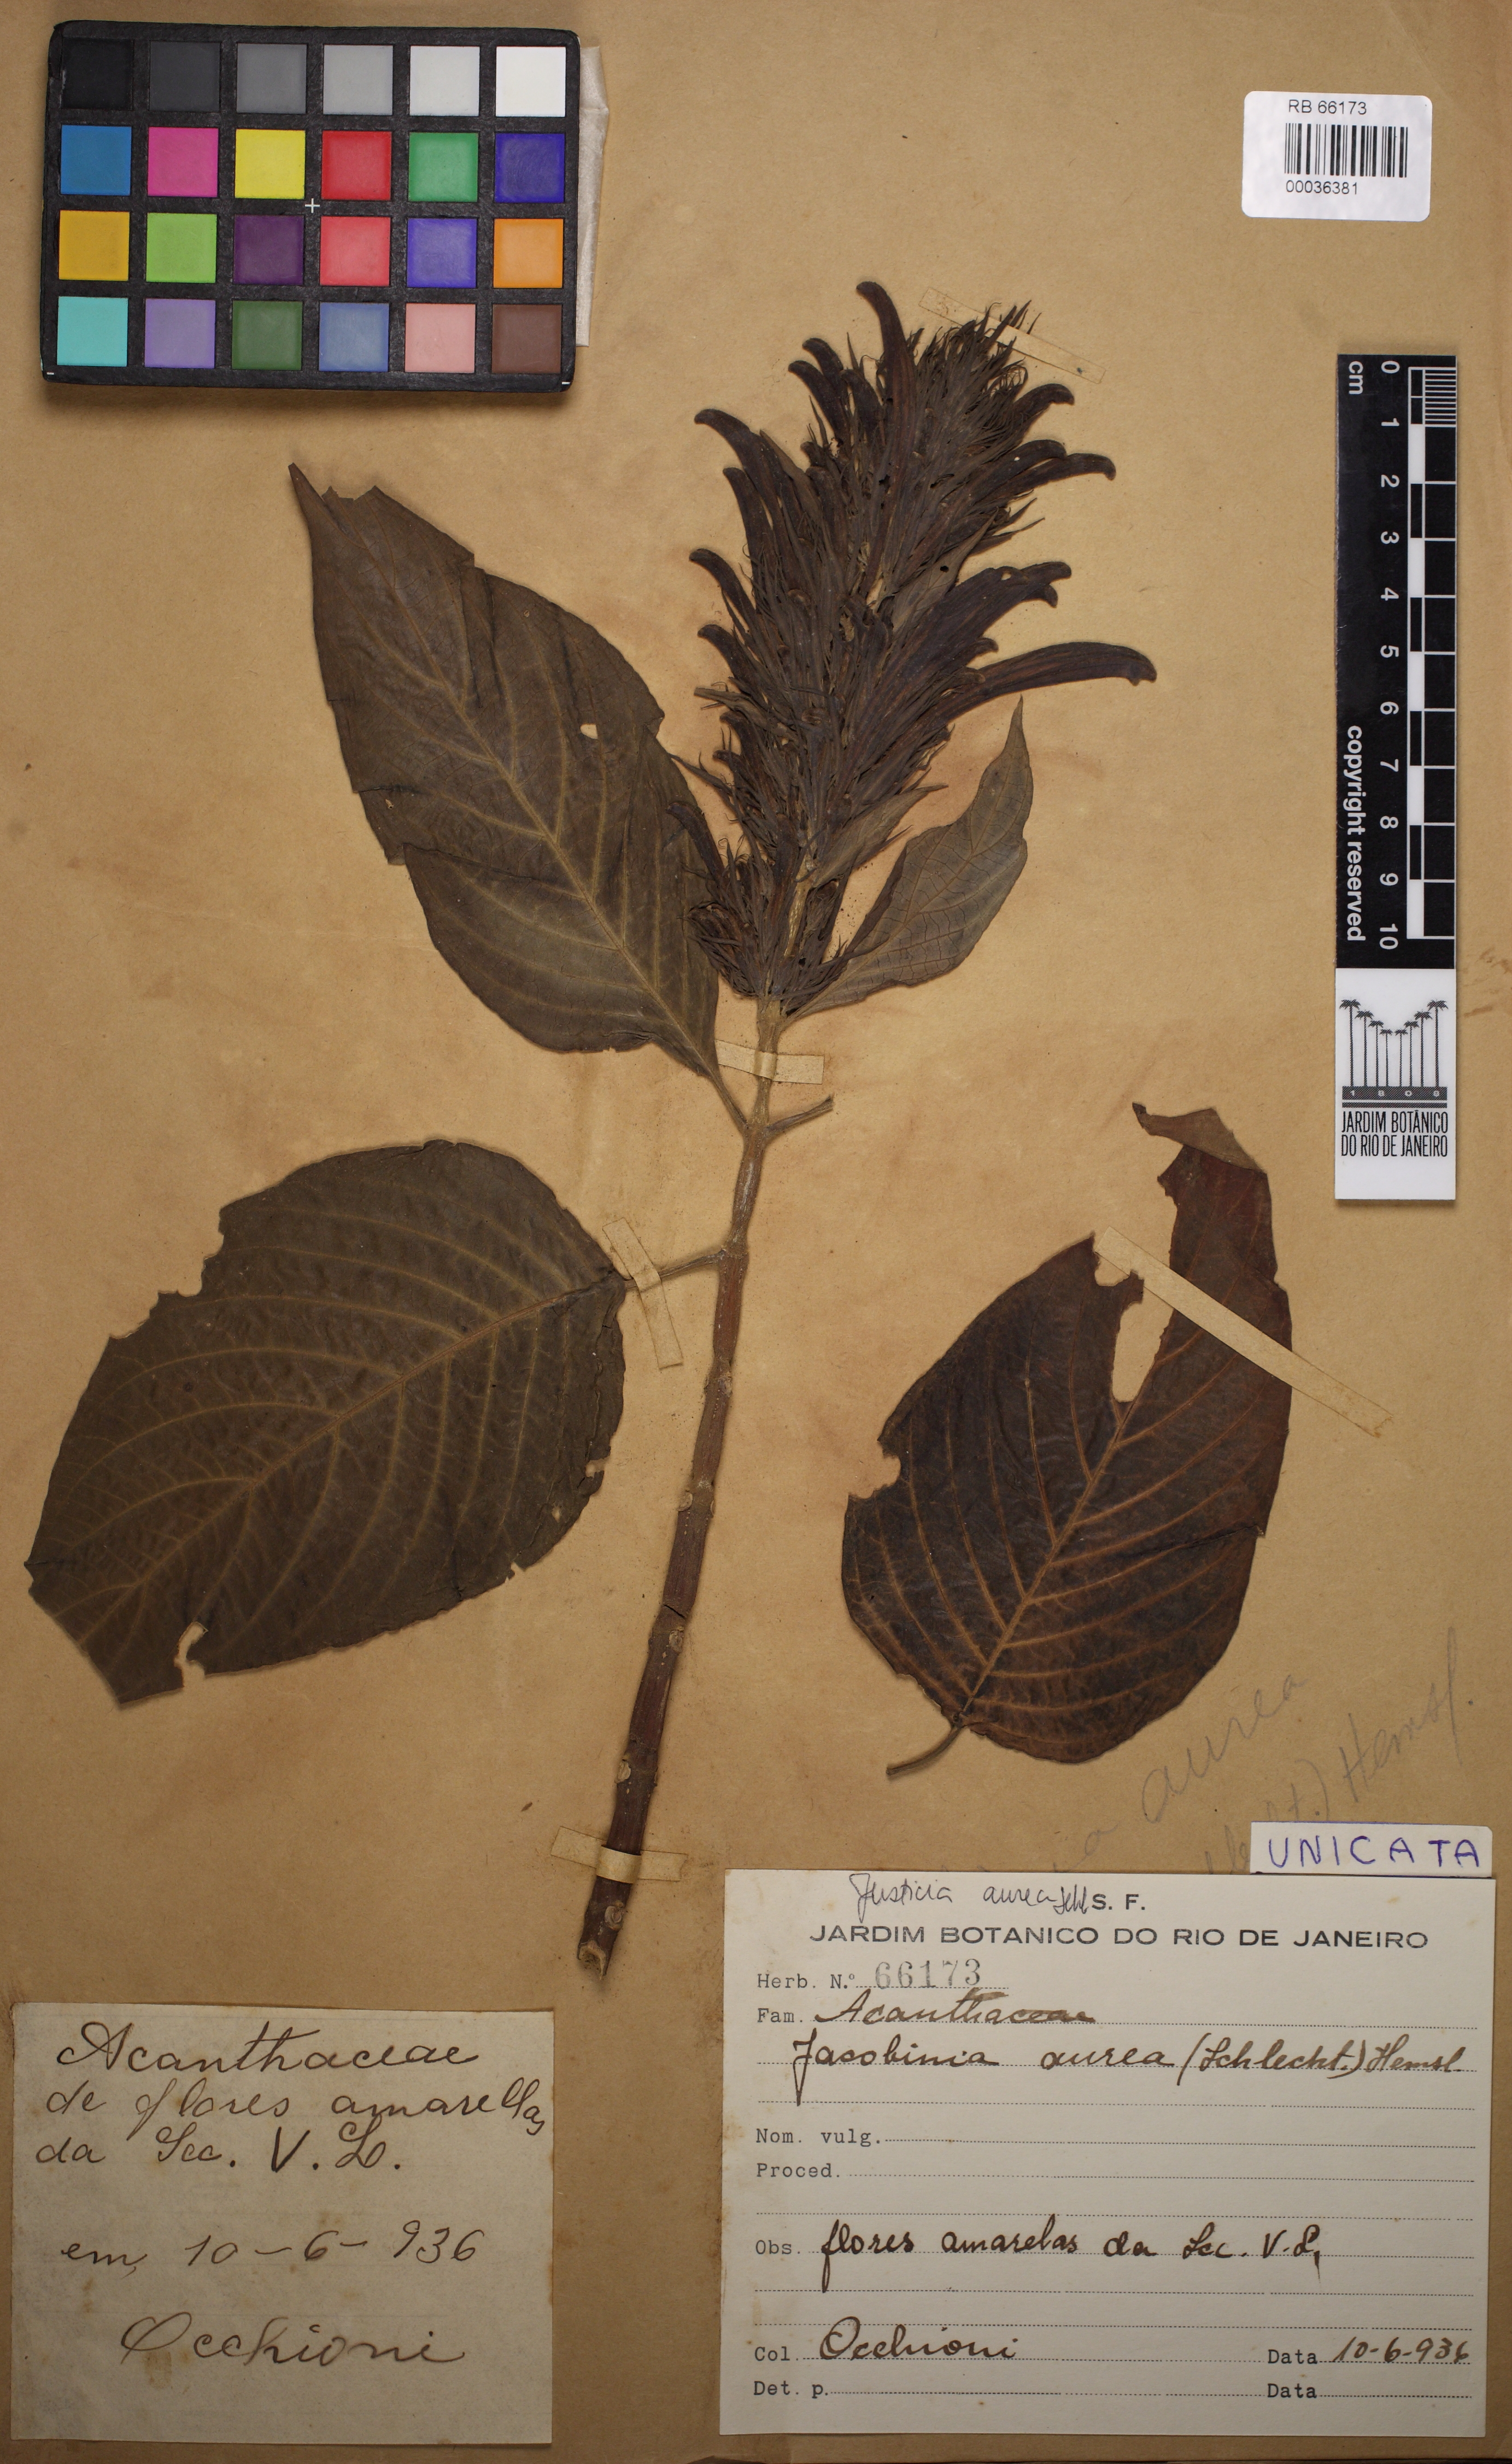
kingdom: Plantae
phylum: Tracheophyta
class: Magnoliopsida
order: Lamiales
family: Acanthaceae
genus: Justicia
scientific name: Justicia aurea
